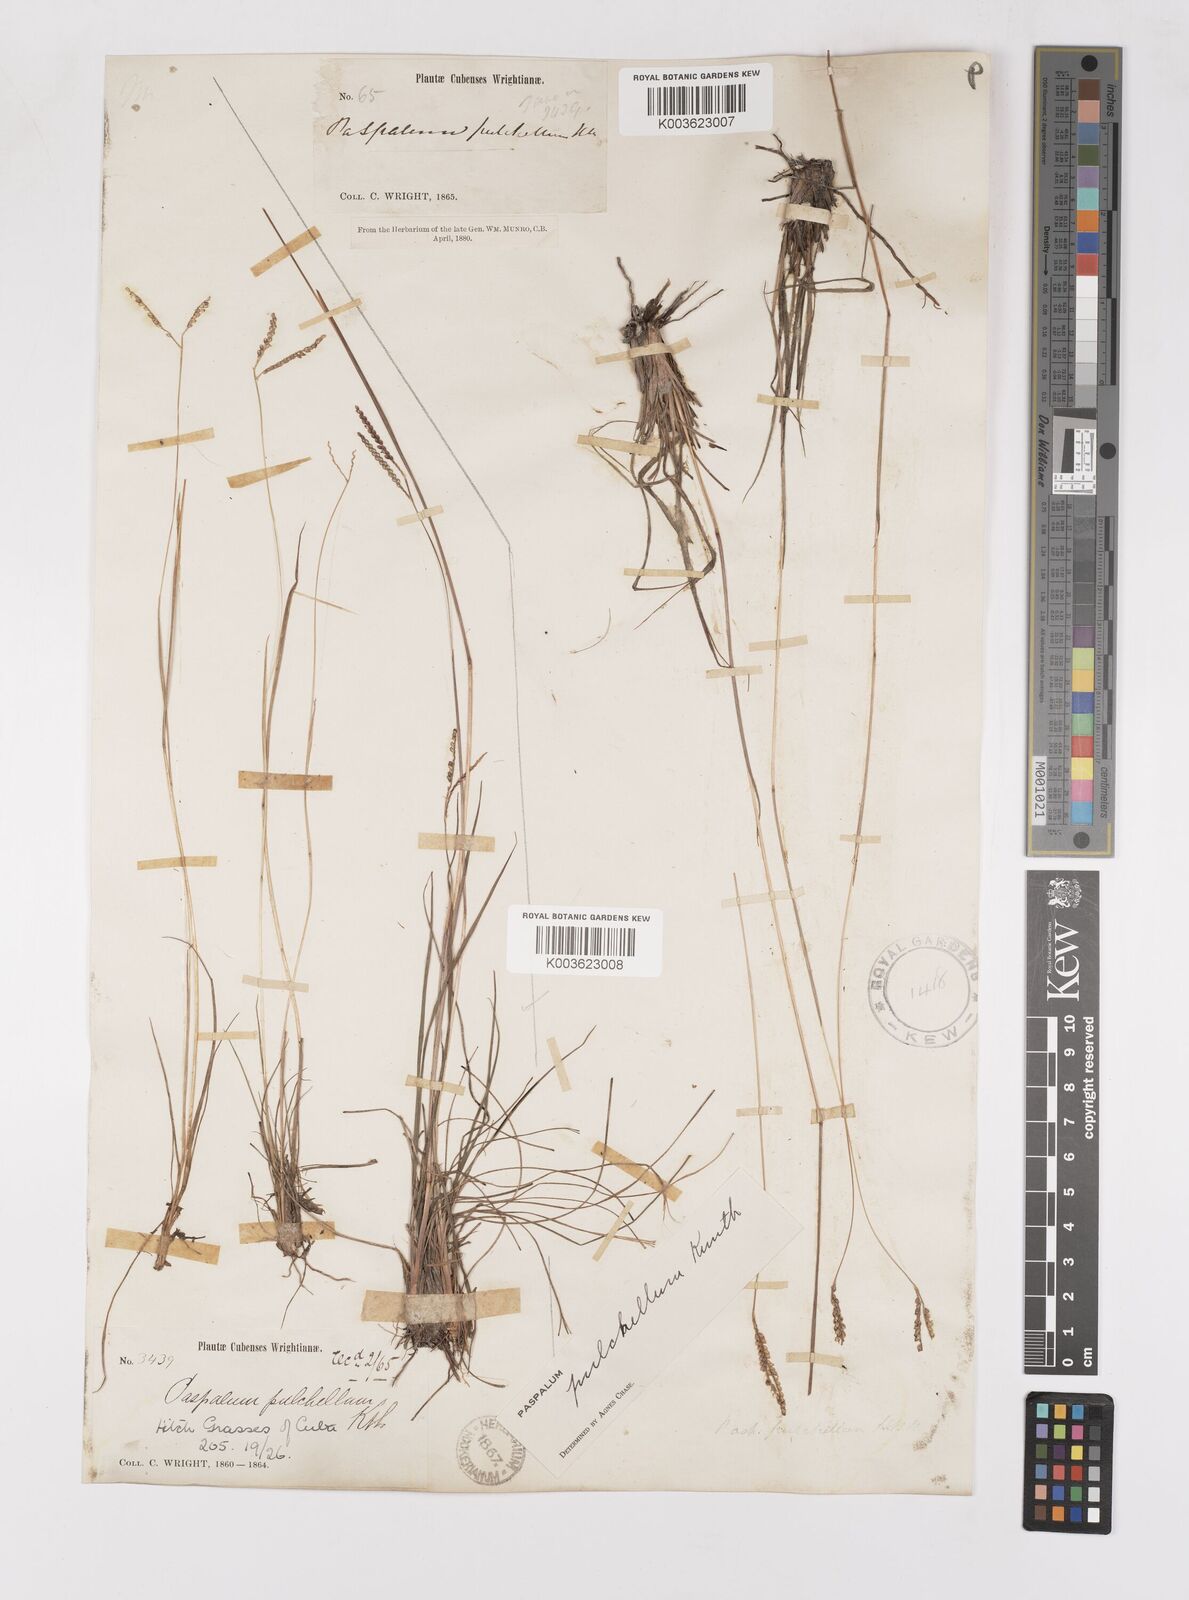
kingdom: Plantae
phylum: Tracheophyta
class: Liliopsida
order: Poales
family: Poaceae
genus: Paspalum
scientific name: Paspalum pulchellum
